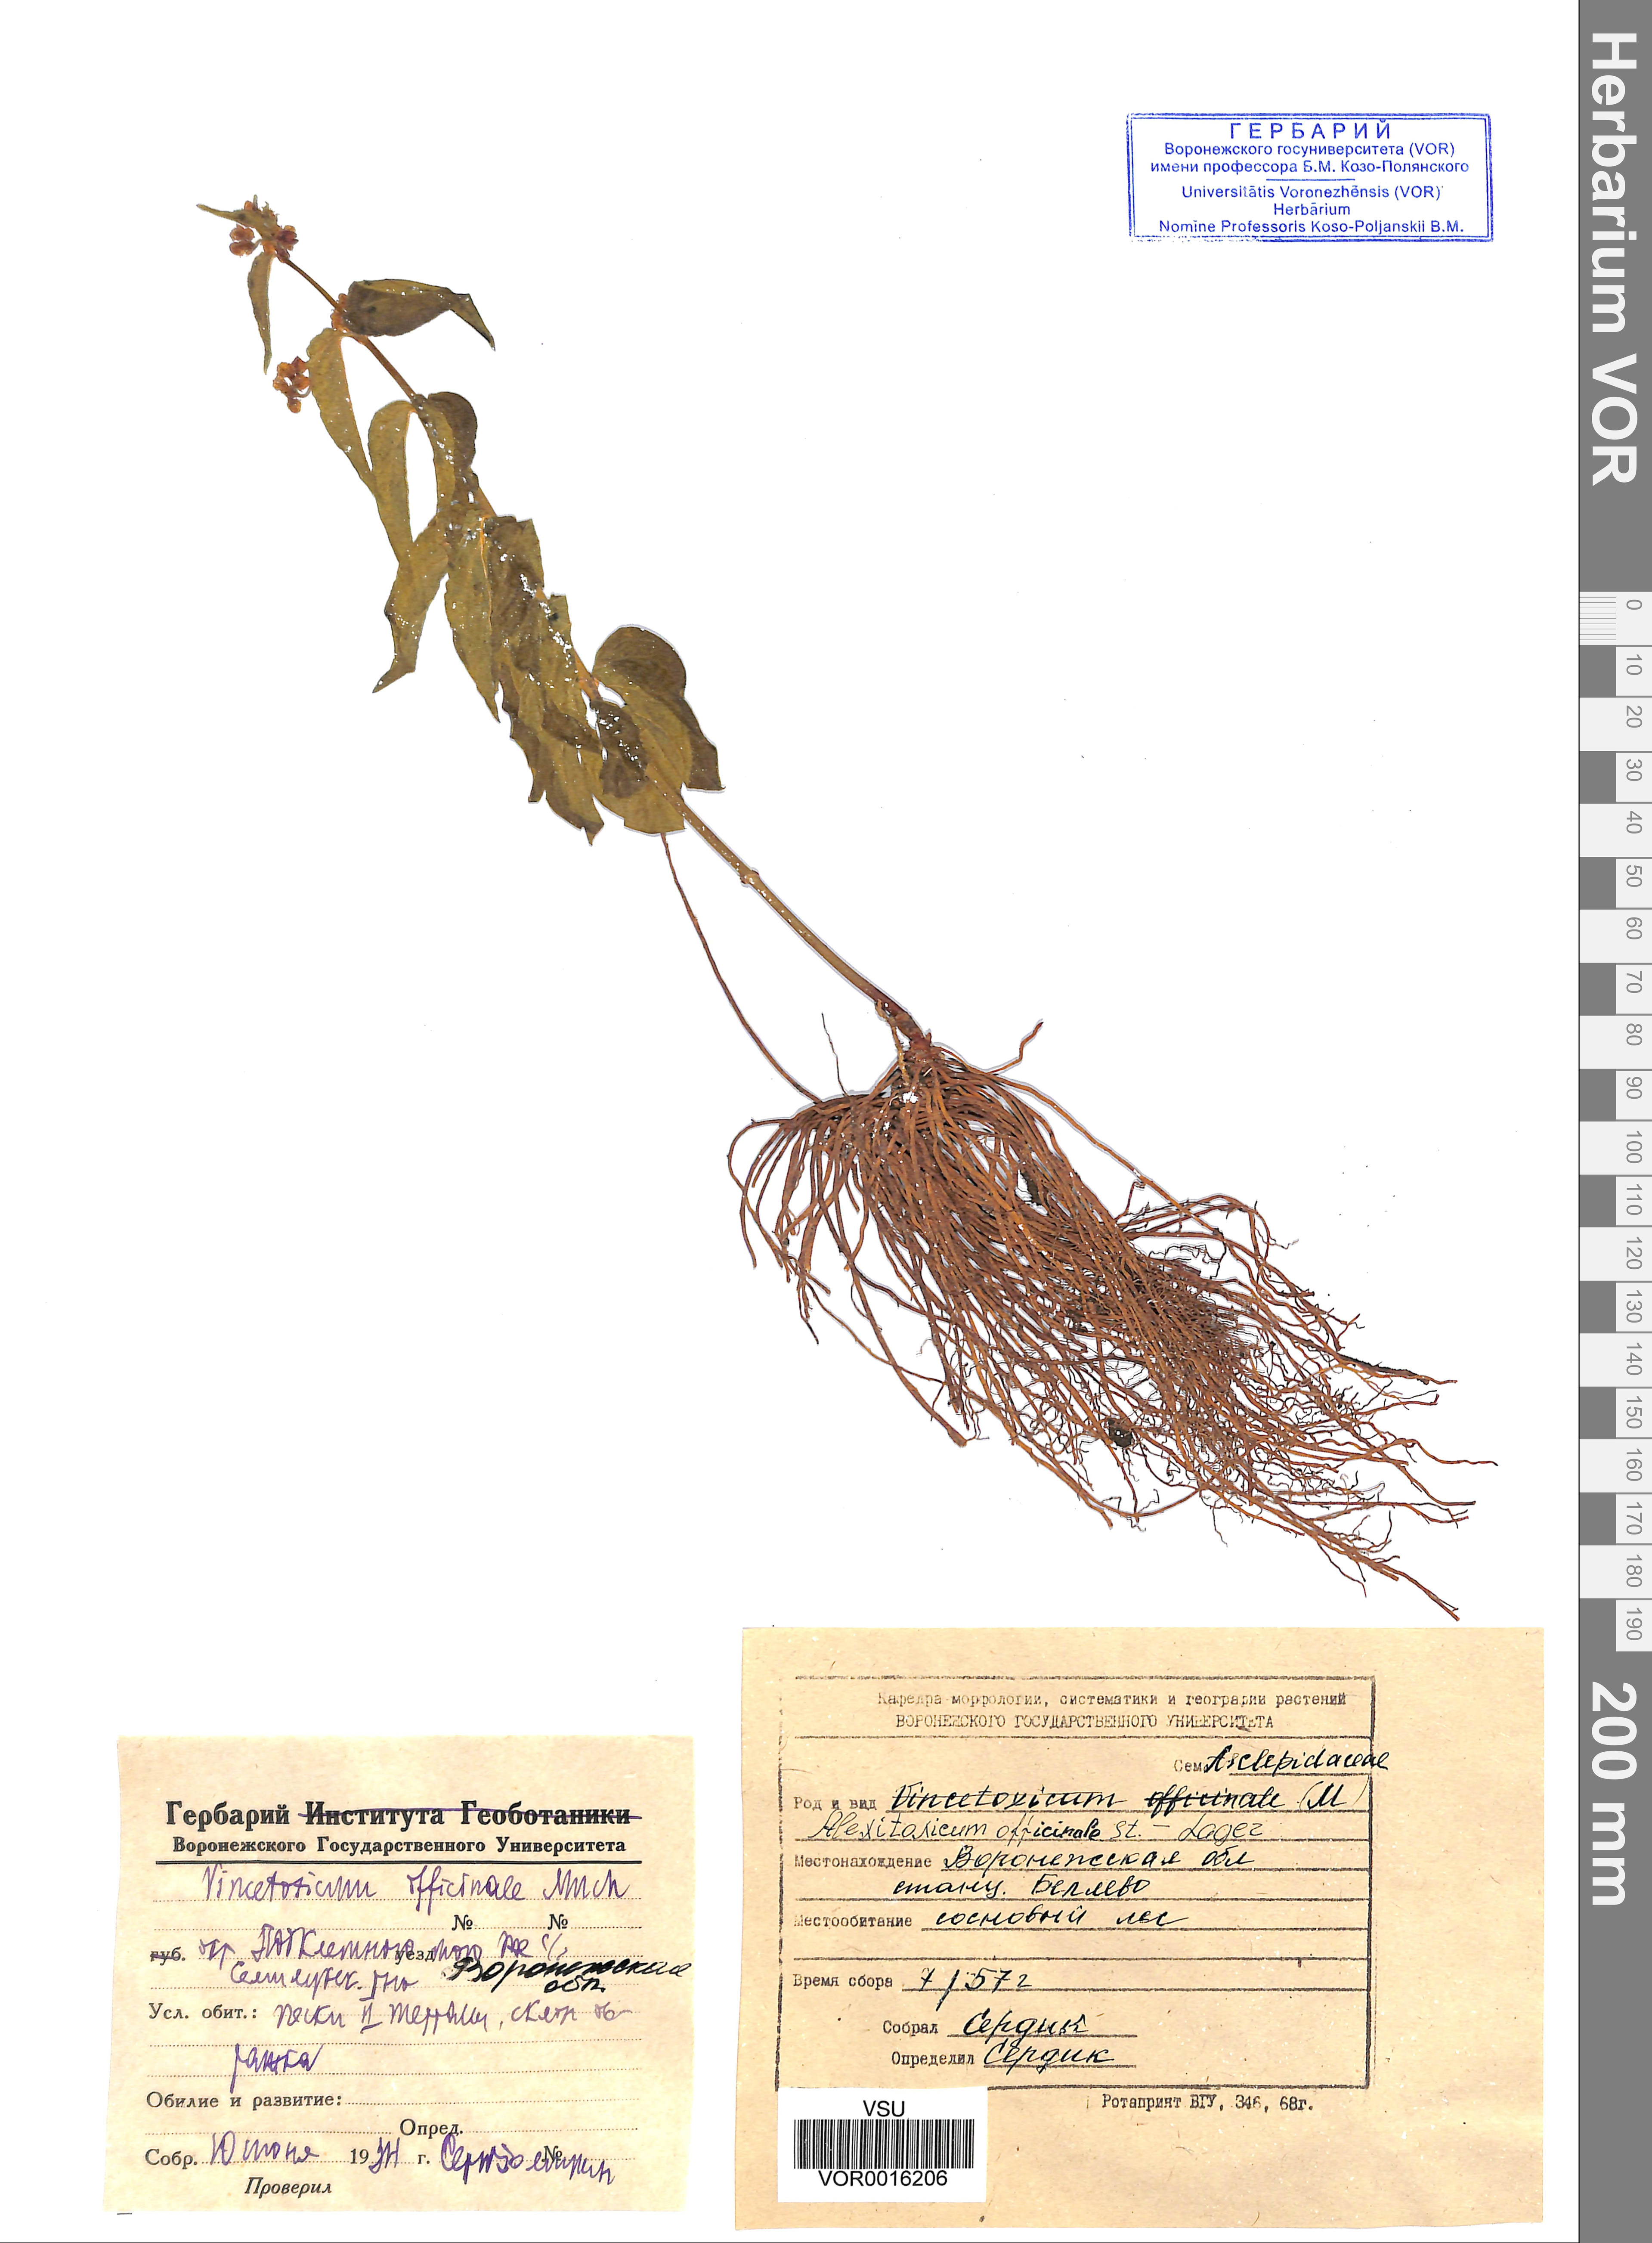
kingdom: Plantae
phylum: Tracheophyta
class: Magnoliopsida
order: Gentianales
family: Apocynaceae
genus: Vincetoxicum
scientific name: Vincetoxicum hirundinaria
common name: White swallowwort
